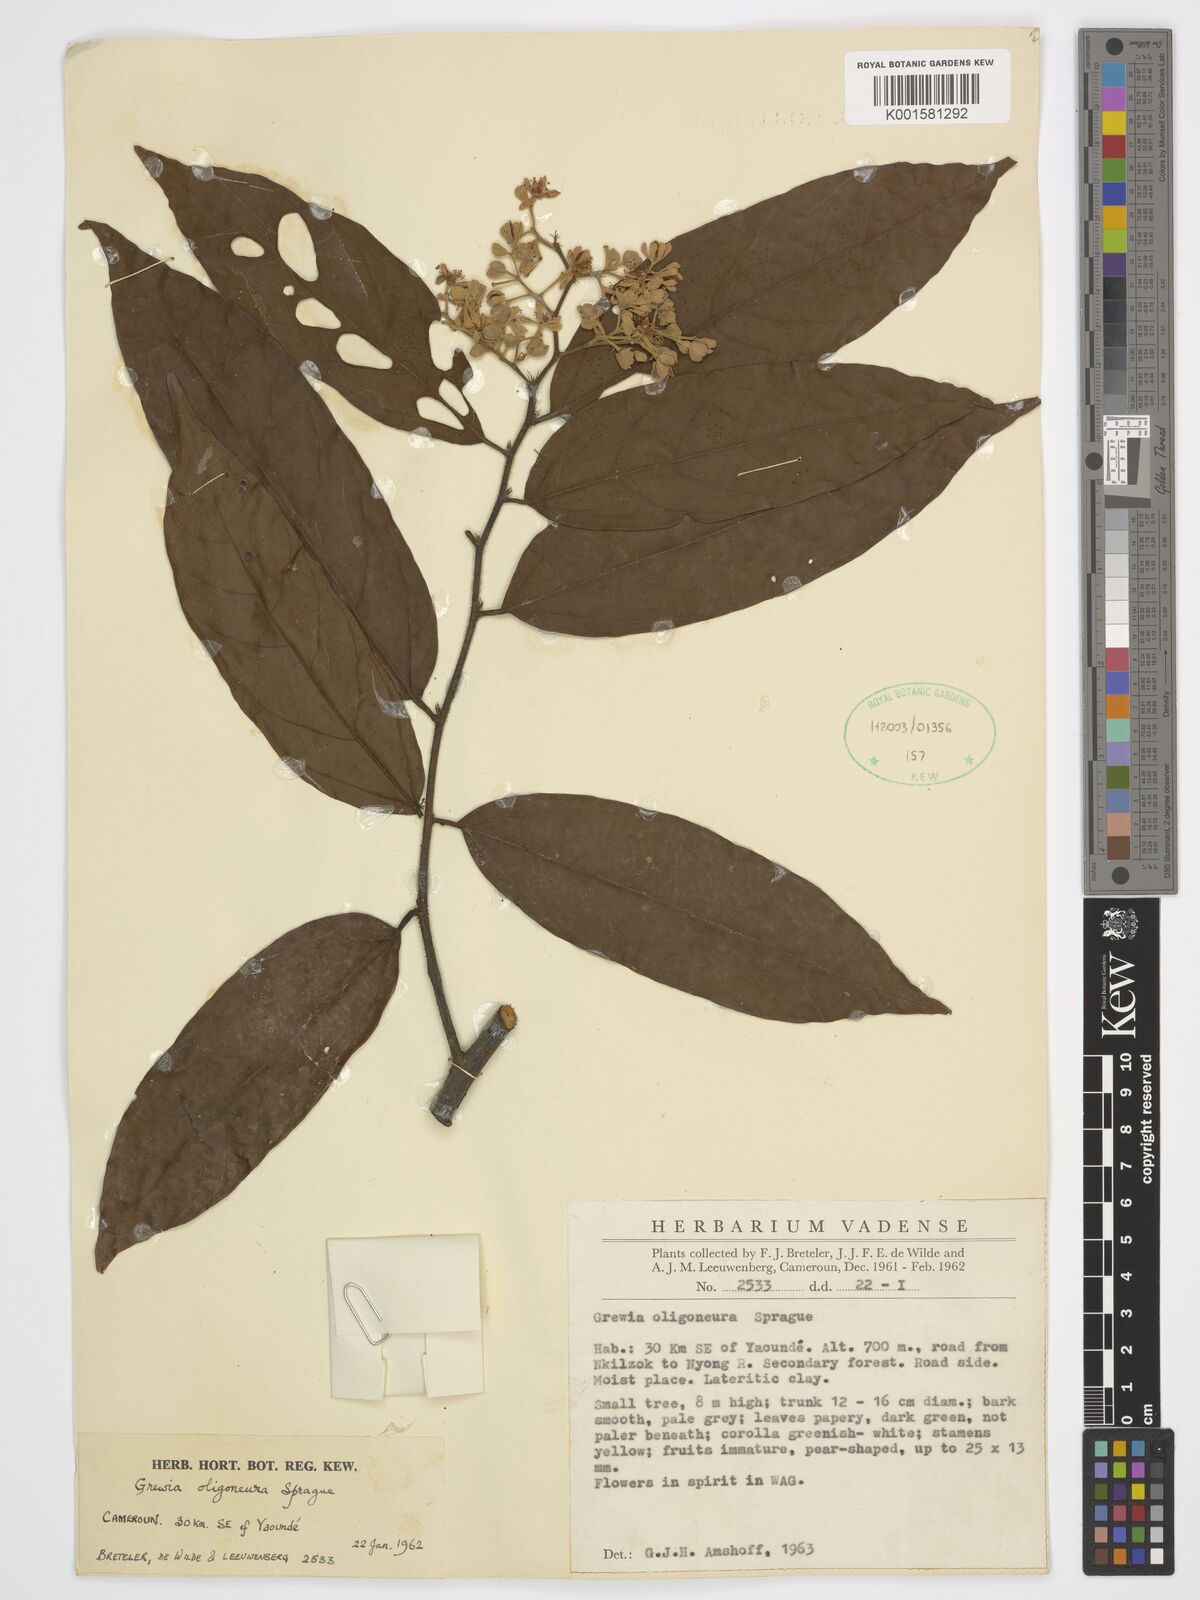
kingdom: Plantae
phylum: Tracheophyta
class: Magnoliopsida
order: Malvales
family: Malvaceae
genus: Microcos
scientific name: Microcos oligoneura
